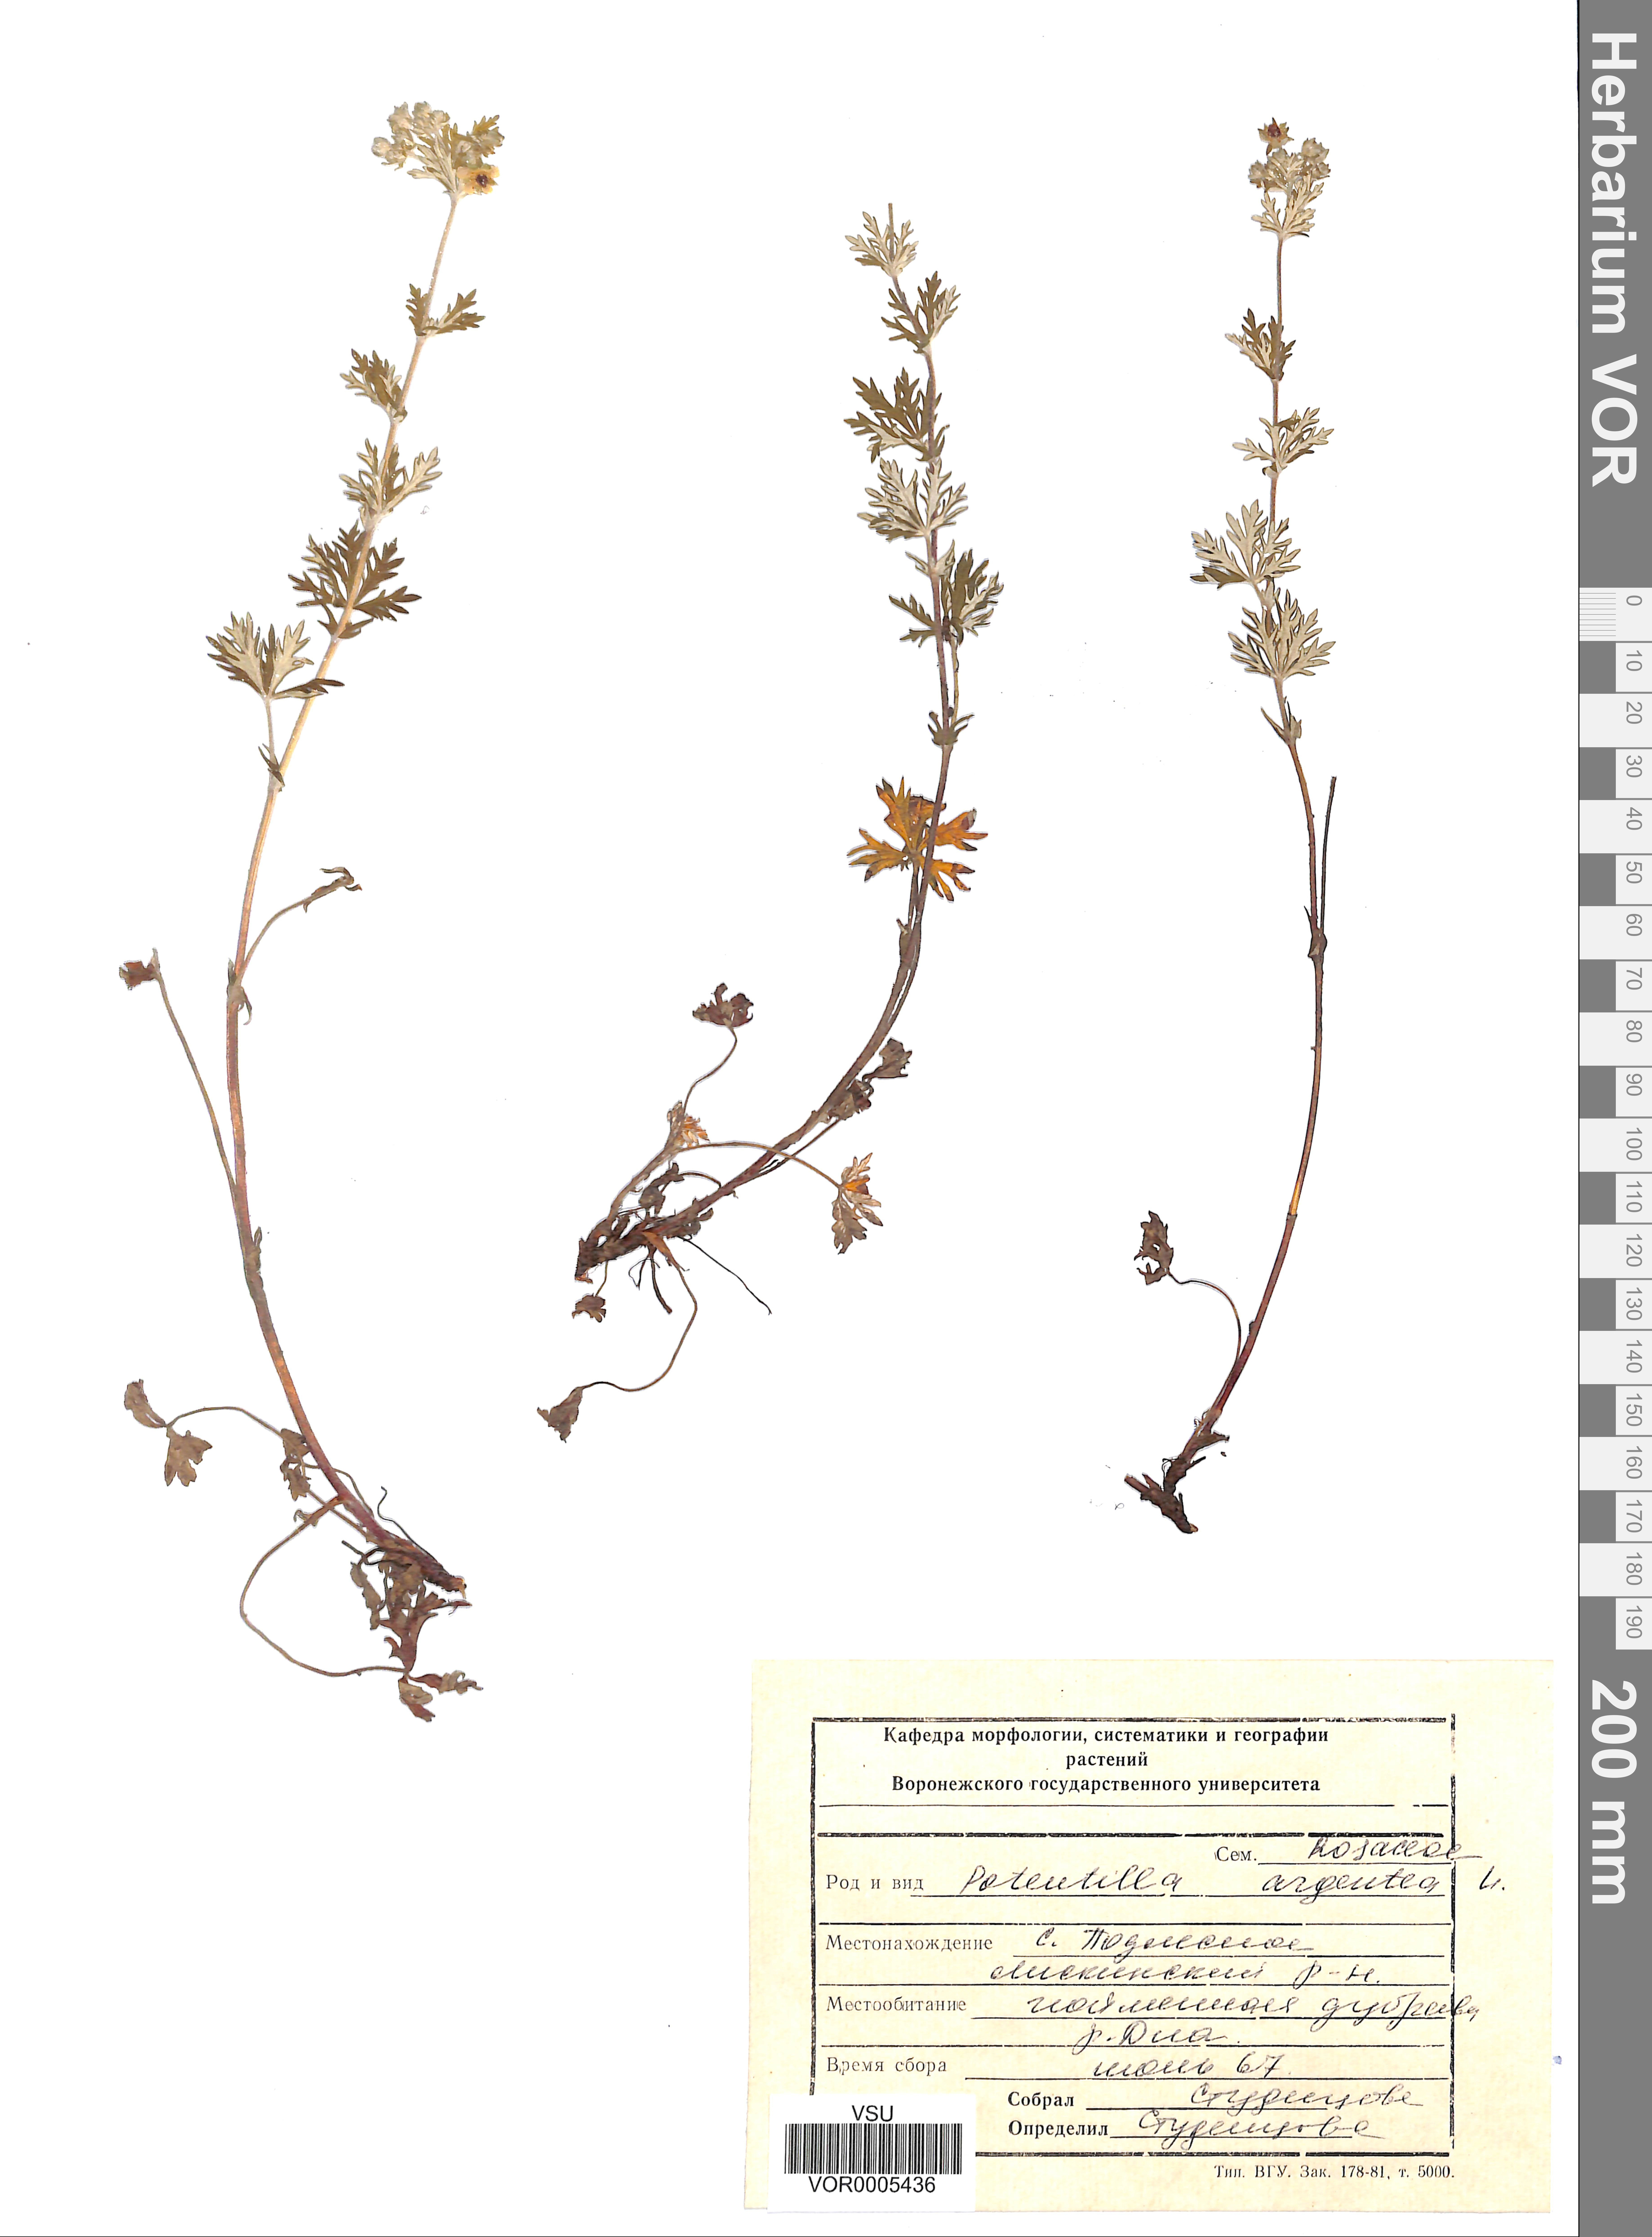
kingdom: Plantae
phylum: Tracheophyta
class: Magnoliopsida
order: Rosales
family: Rosaceae
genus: Potentilla
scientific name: Potentilla argentea
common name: Hoary cinquefoil
